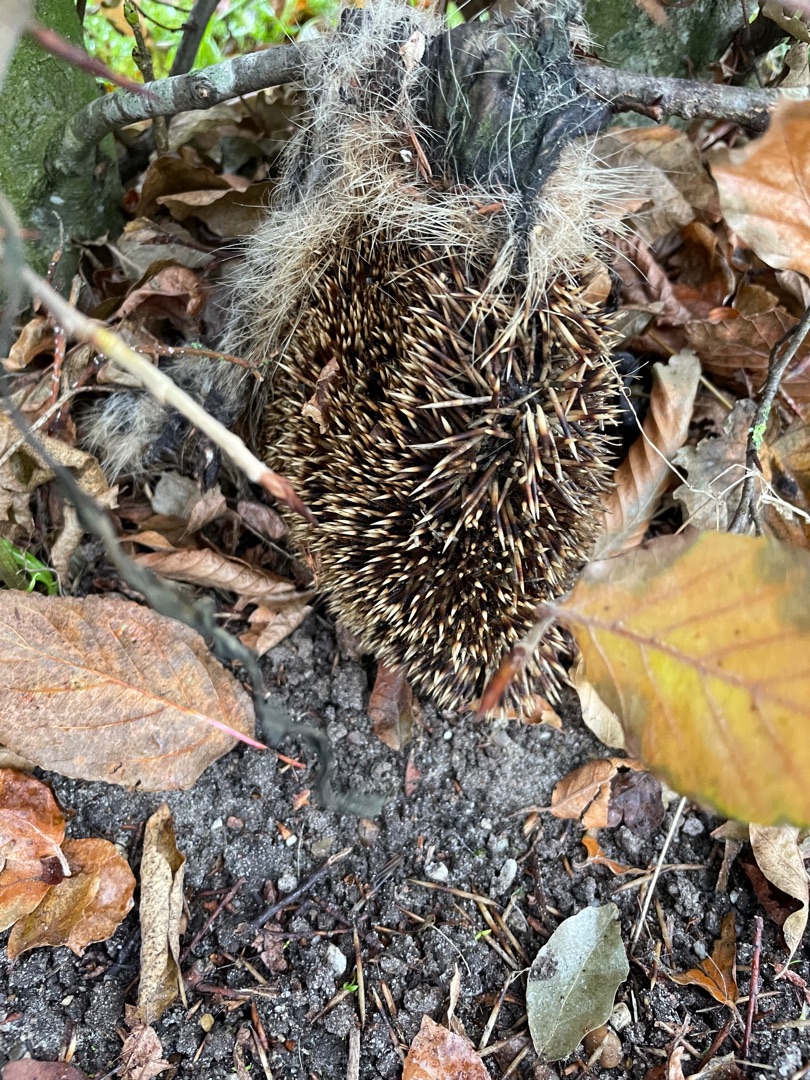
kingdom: Animalia
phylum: Chordata
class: Mammalia
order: Erinaceomorpha
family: Erinaceidae
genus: Erinaceus
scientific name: Erinaceus europaeus
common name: Pindsvin
